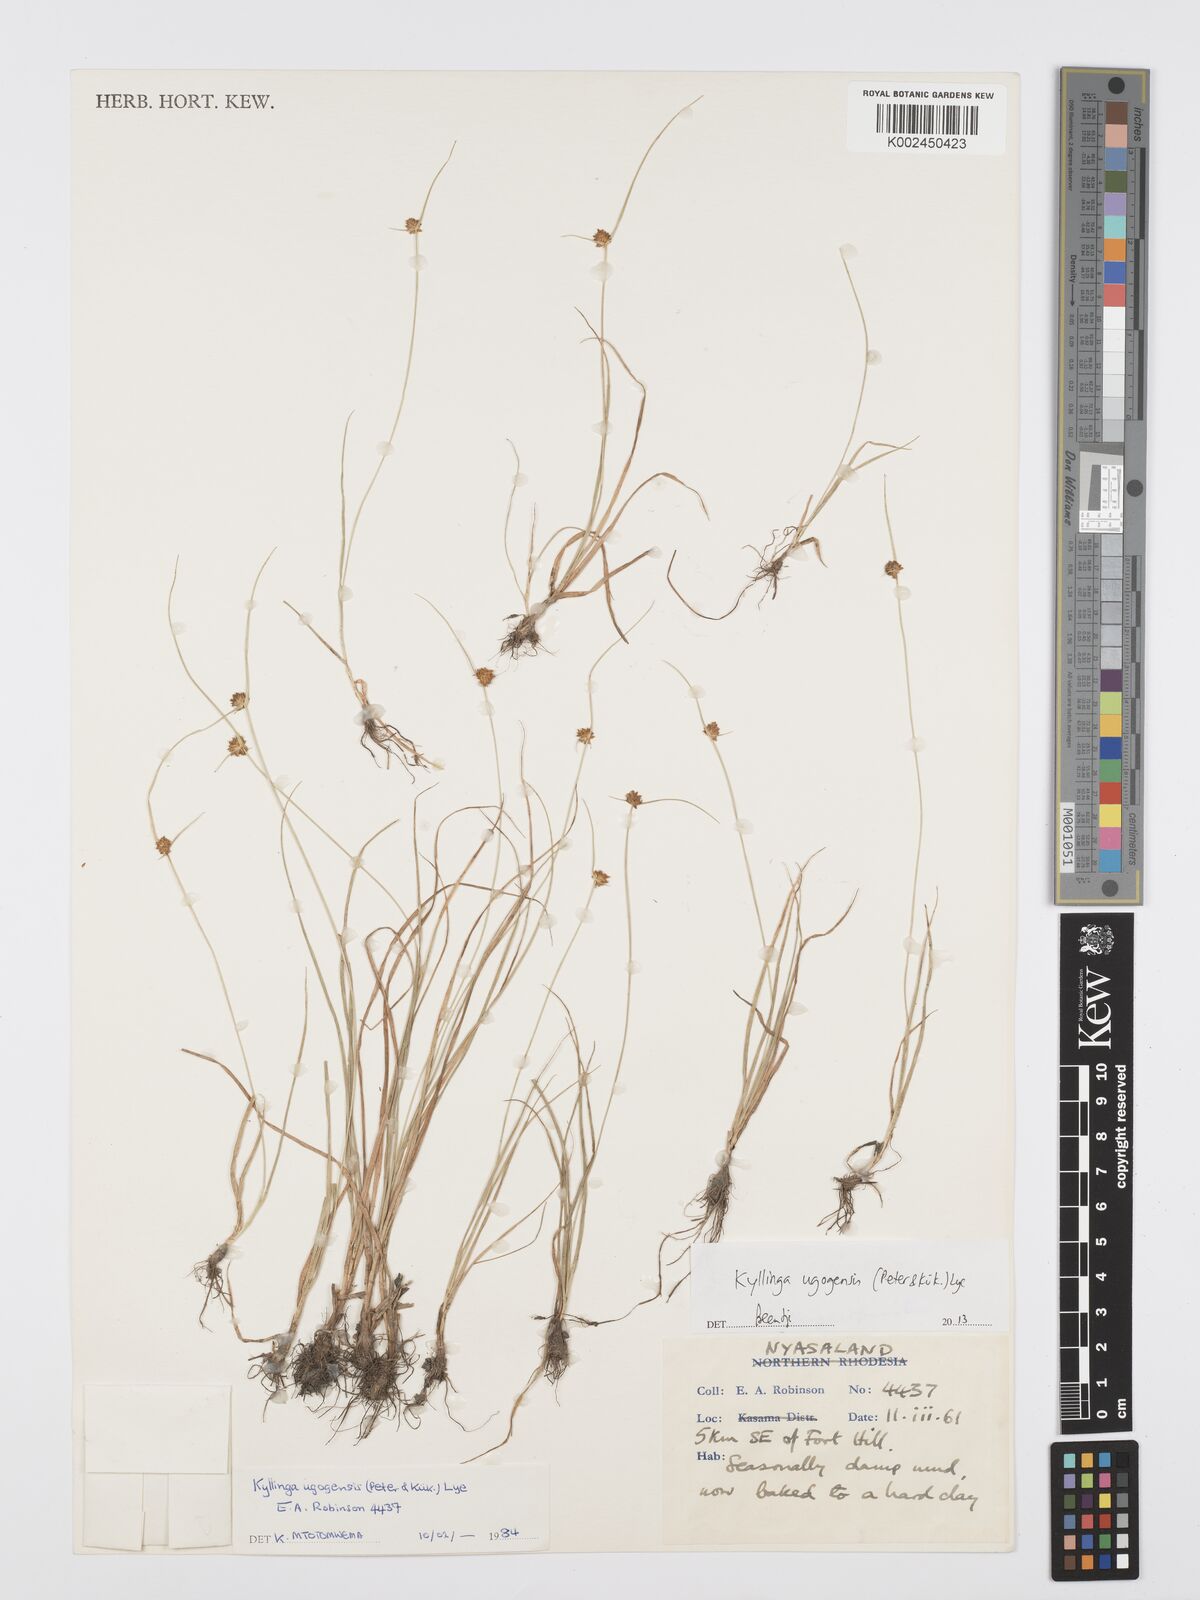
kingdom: Plantae
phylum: Tracheophyta
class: Liliopsida
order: Poales
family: Cyperaceae
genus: Cyperus
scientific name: Cyperus ugogensis
